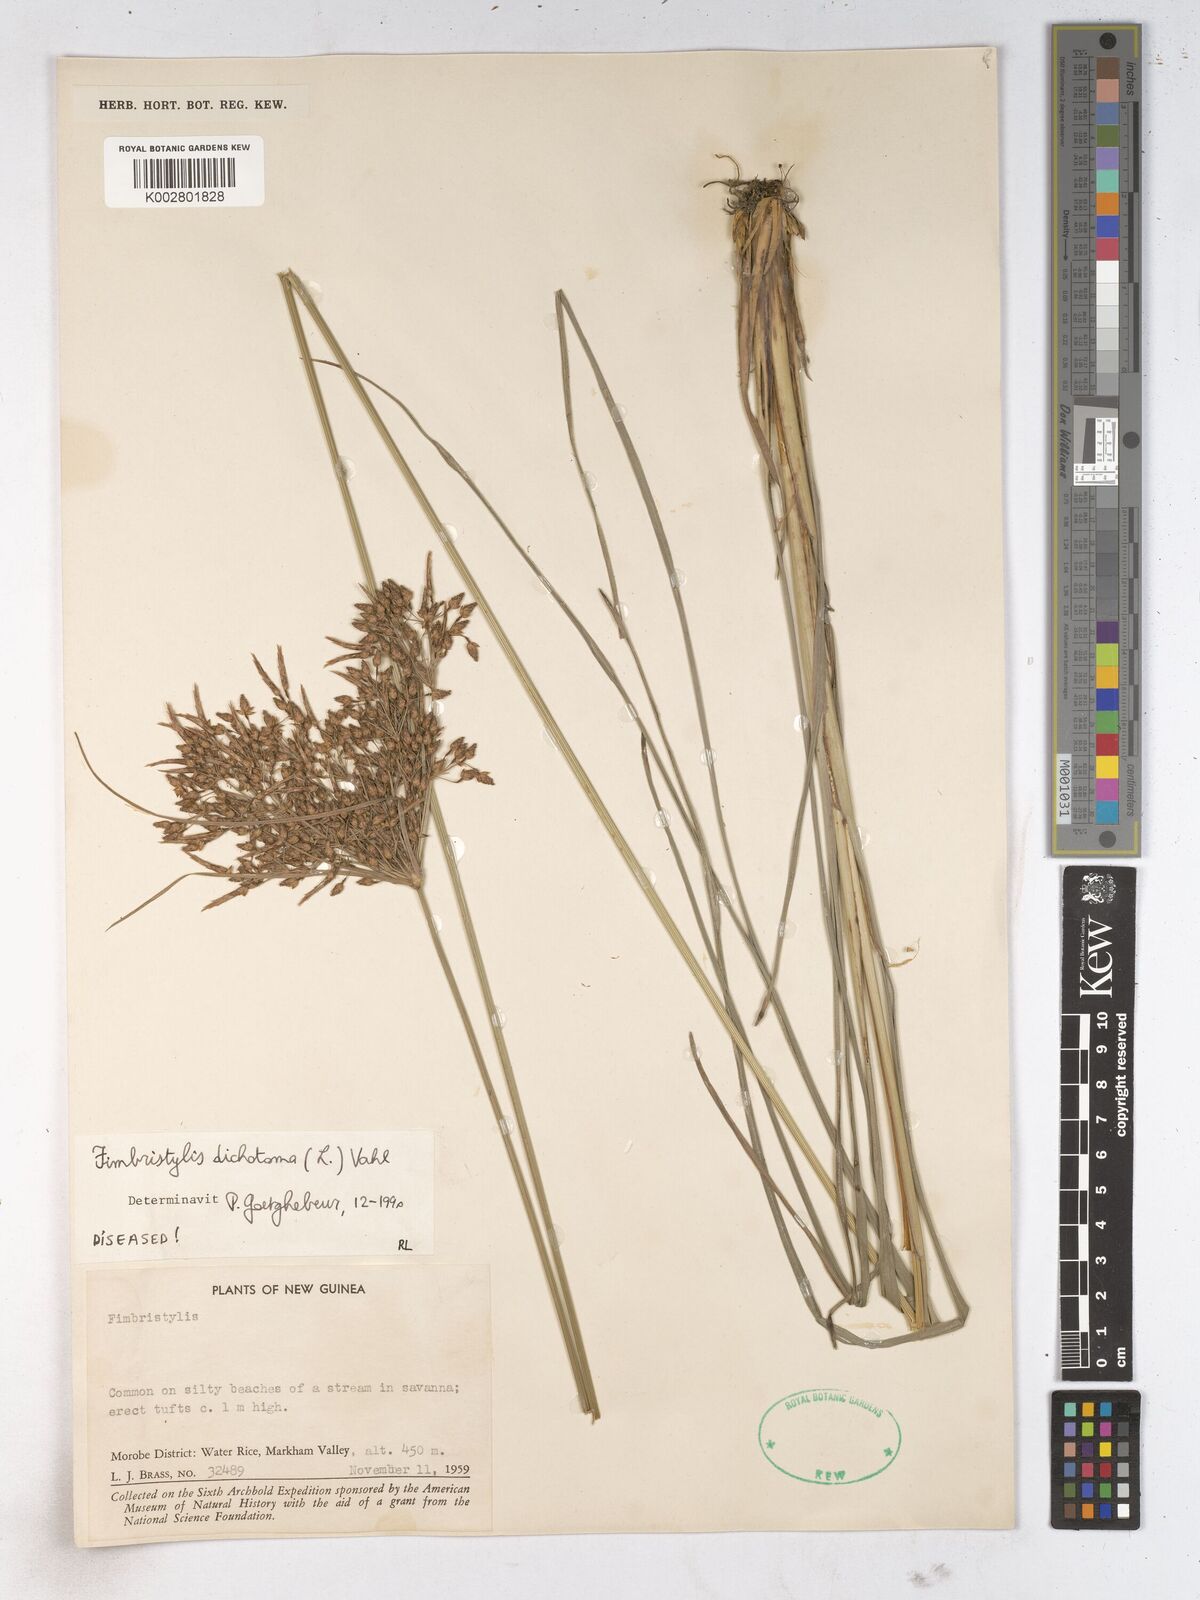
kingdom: Plantae
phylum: Tracheophyta
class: Liliopsida
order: Poales
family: Cyperaceae
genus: Fimbristylis
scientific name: Fimbristylis dichotoma
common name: Forked fimbry
